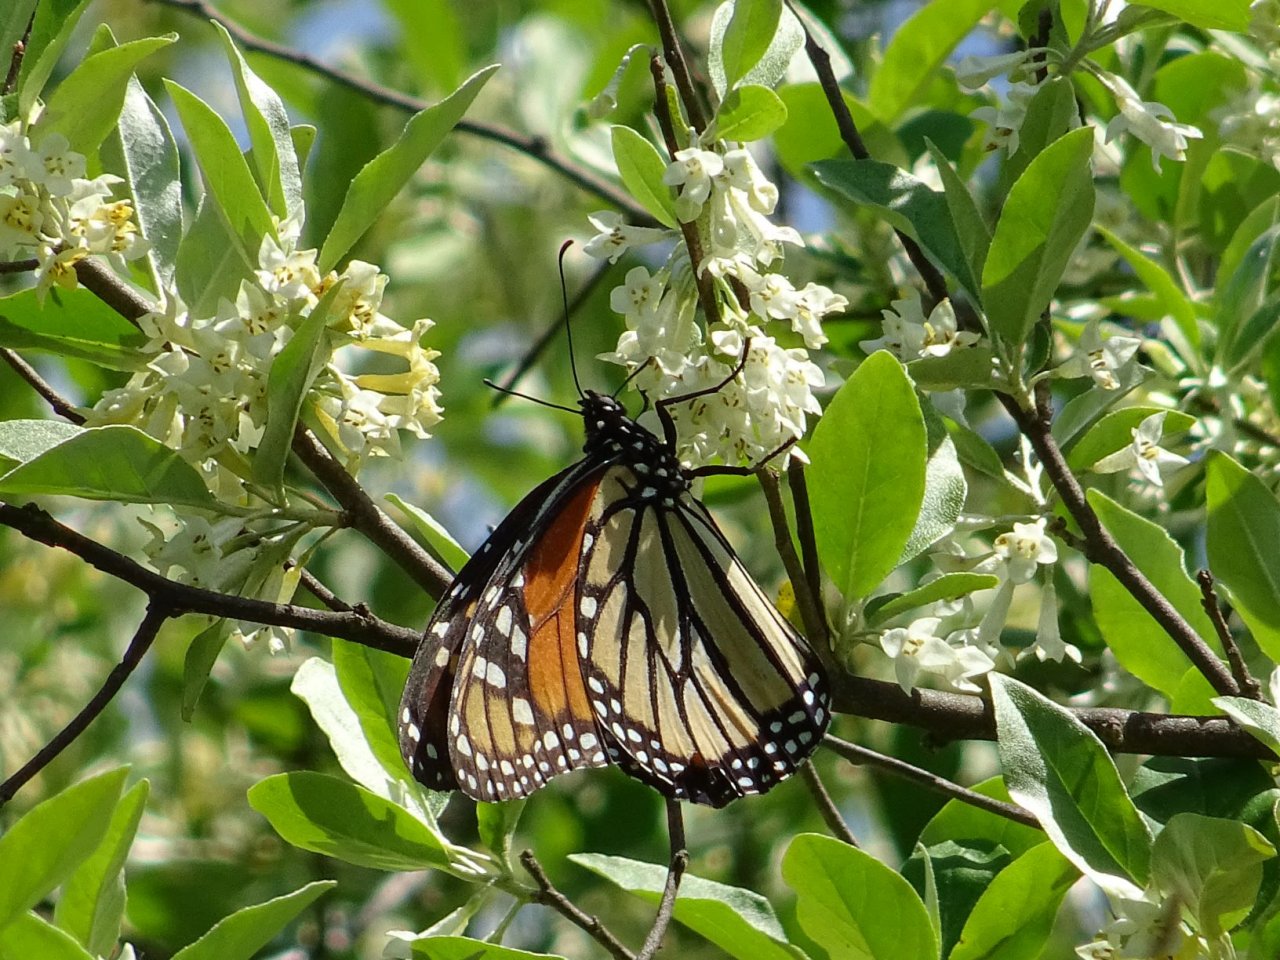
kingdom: Animalia
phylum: Arthropoda
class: Insecta
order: Lepidoptera
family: Nymphalidae
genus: Danaus
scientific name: Danaus plexippus
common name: Monarch
